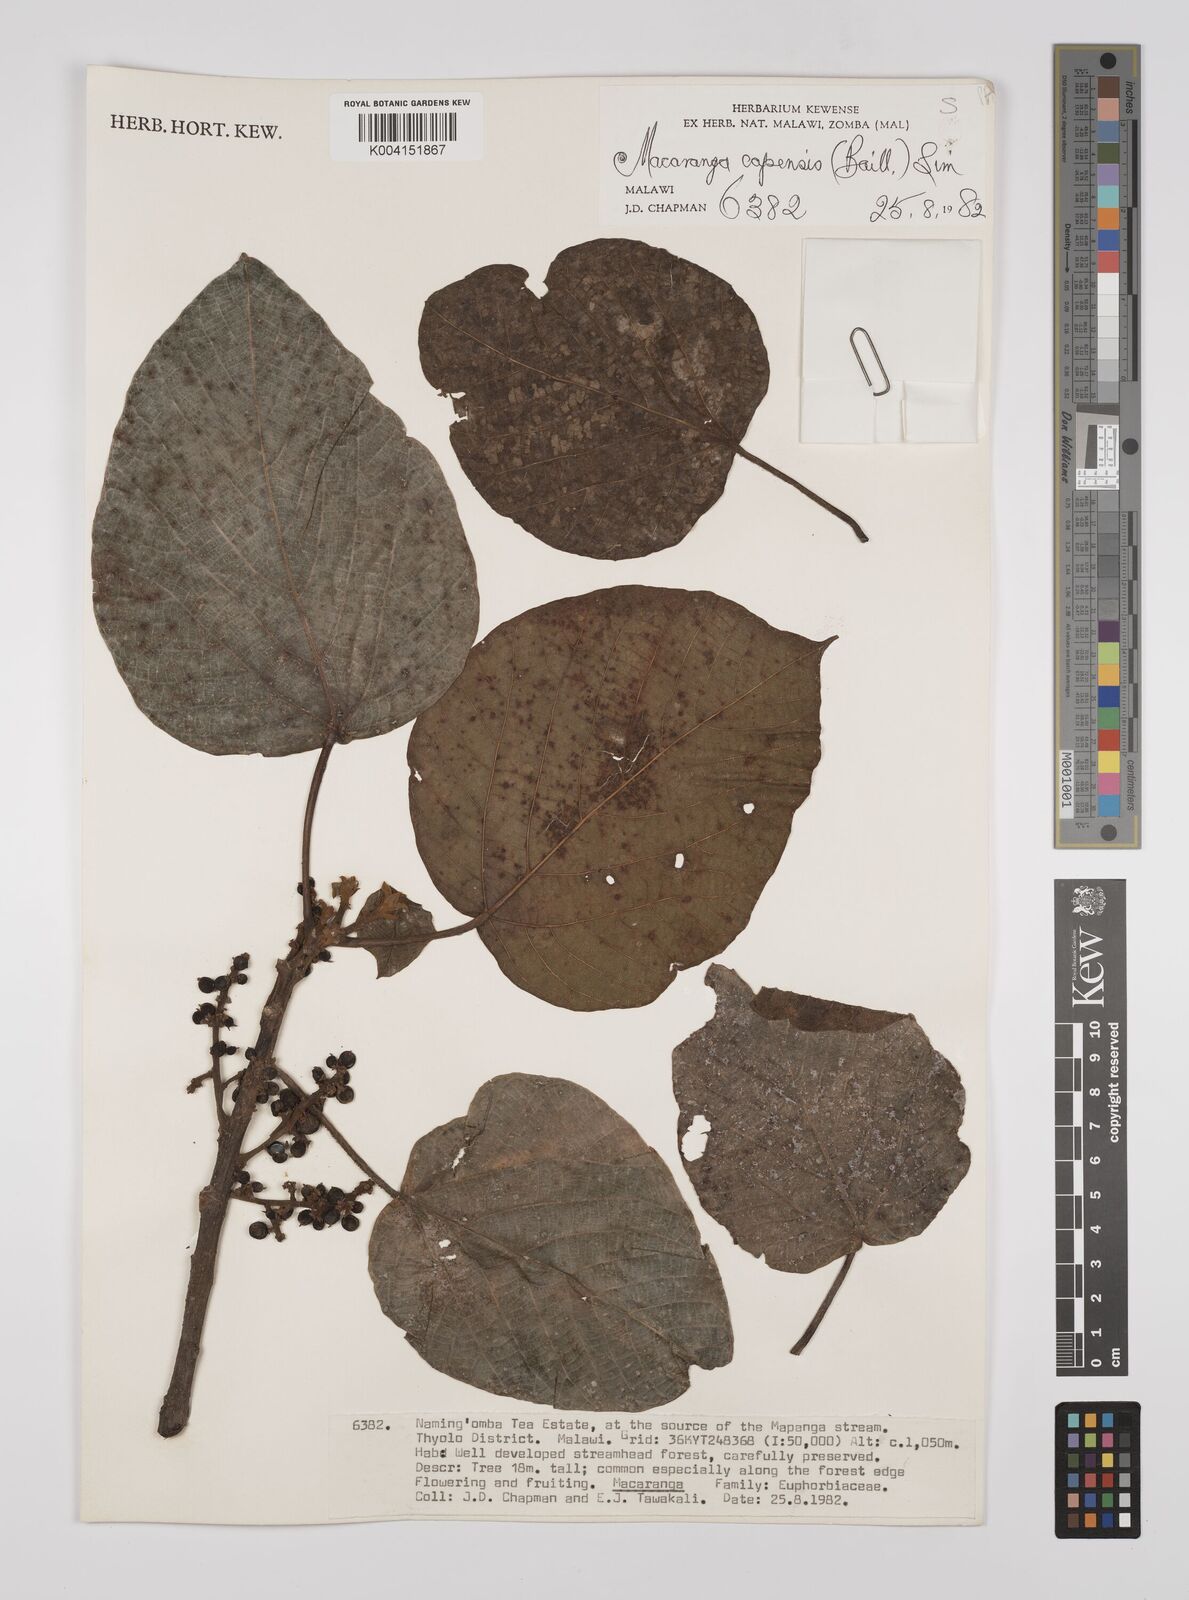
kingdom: Plantae
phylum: Tracheophyta
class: Magnoliopsida
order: Malpighiales
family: Euphorbiaceae
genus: Macaranga
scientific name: Macaranga capensis
